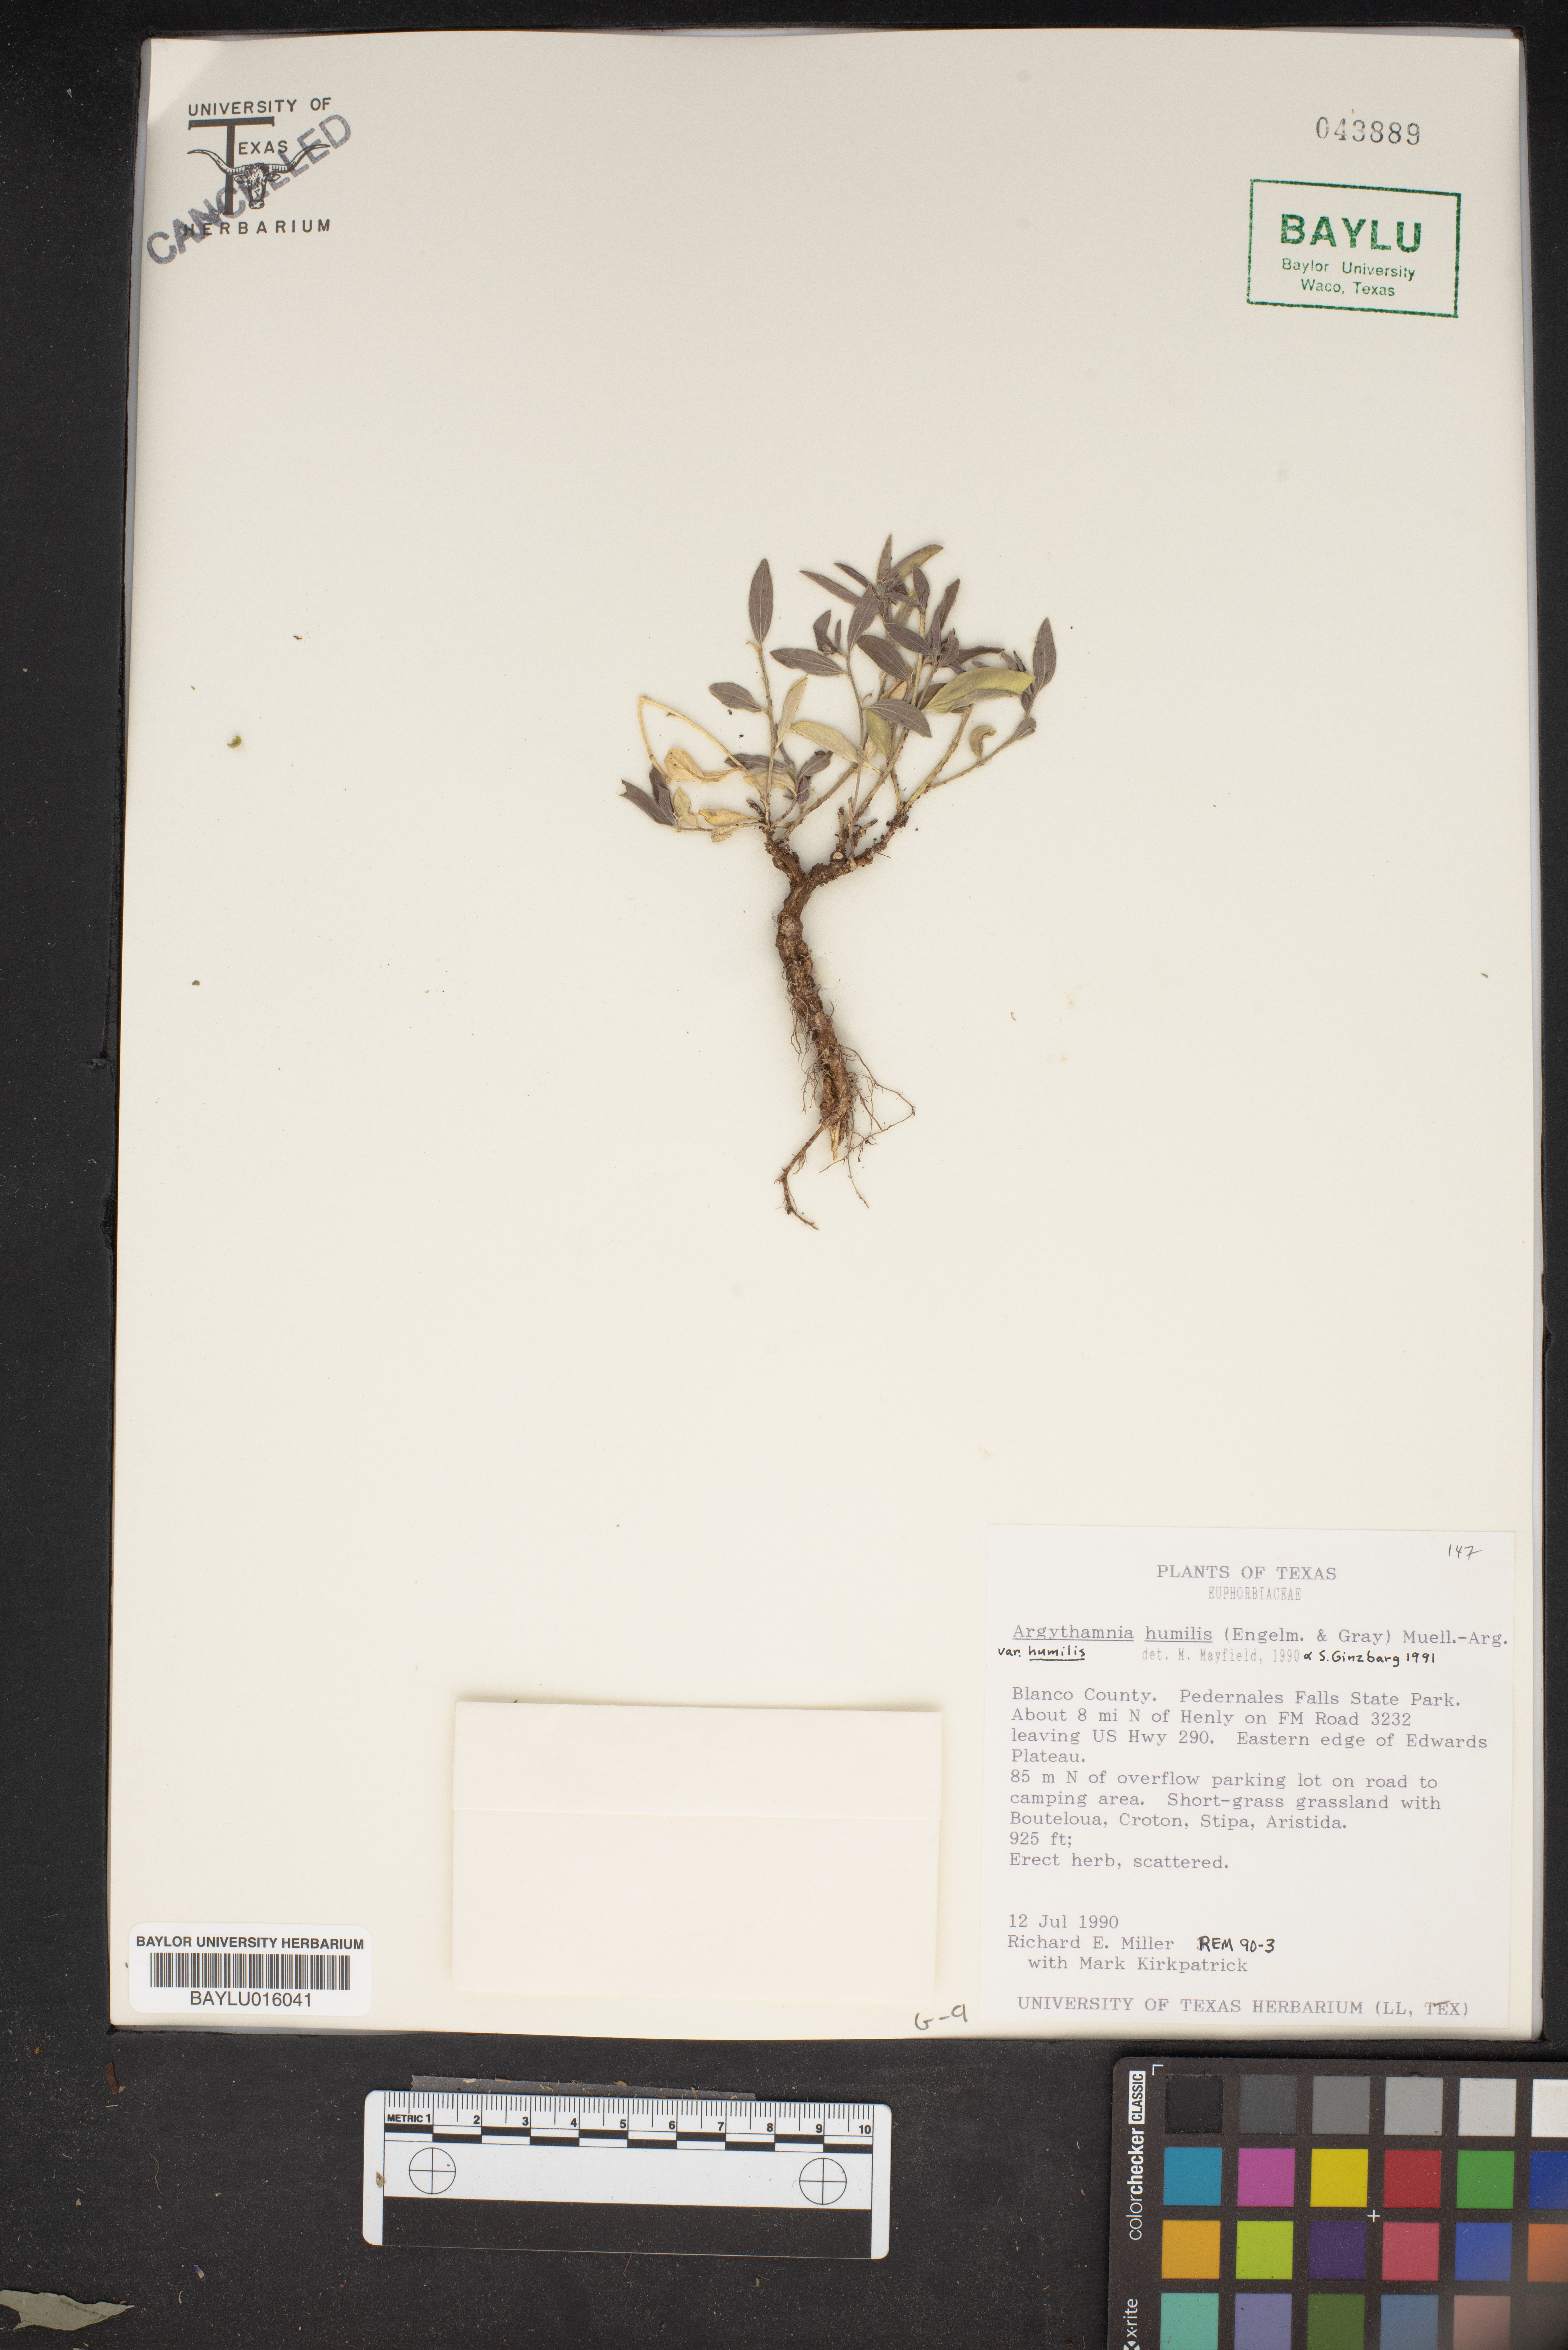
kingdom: Plantae
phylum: Tracheophyta
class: Magnoliopsida
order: Malpighiales
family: Euphorbiaceae
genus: Ditaxis
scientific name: Ditaxis humilis
